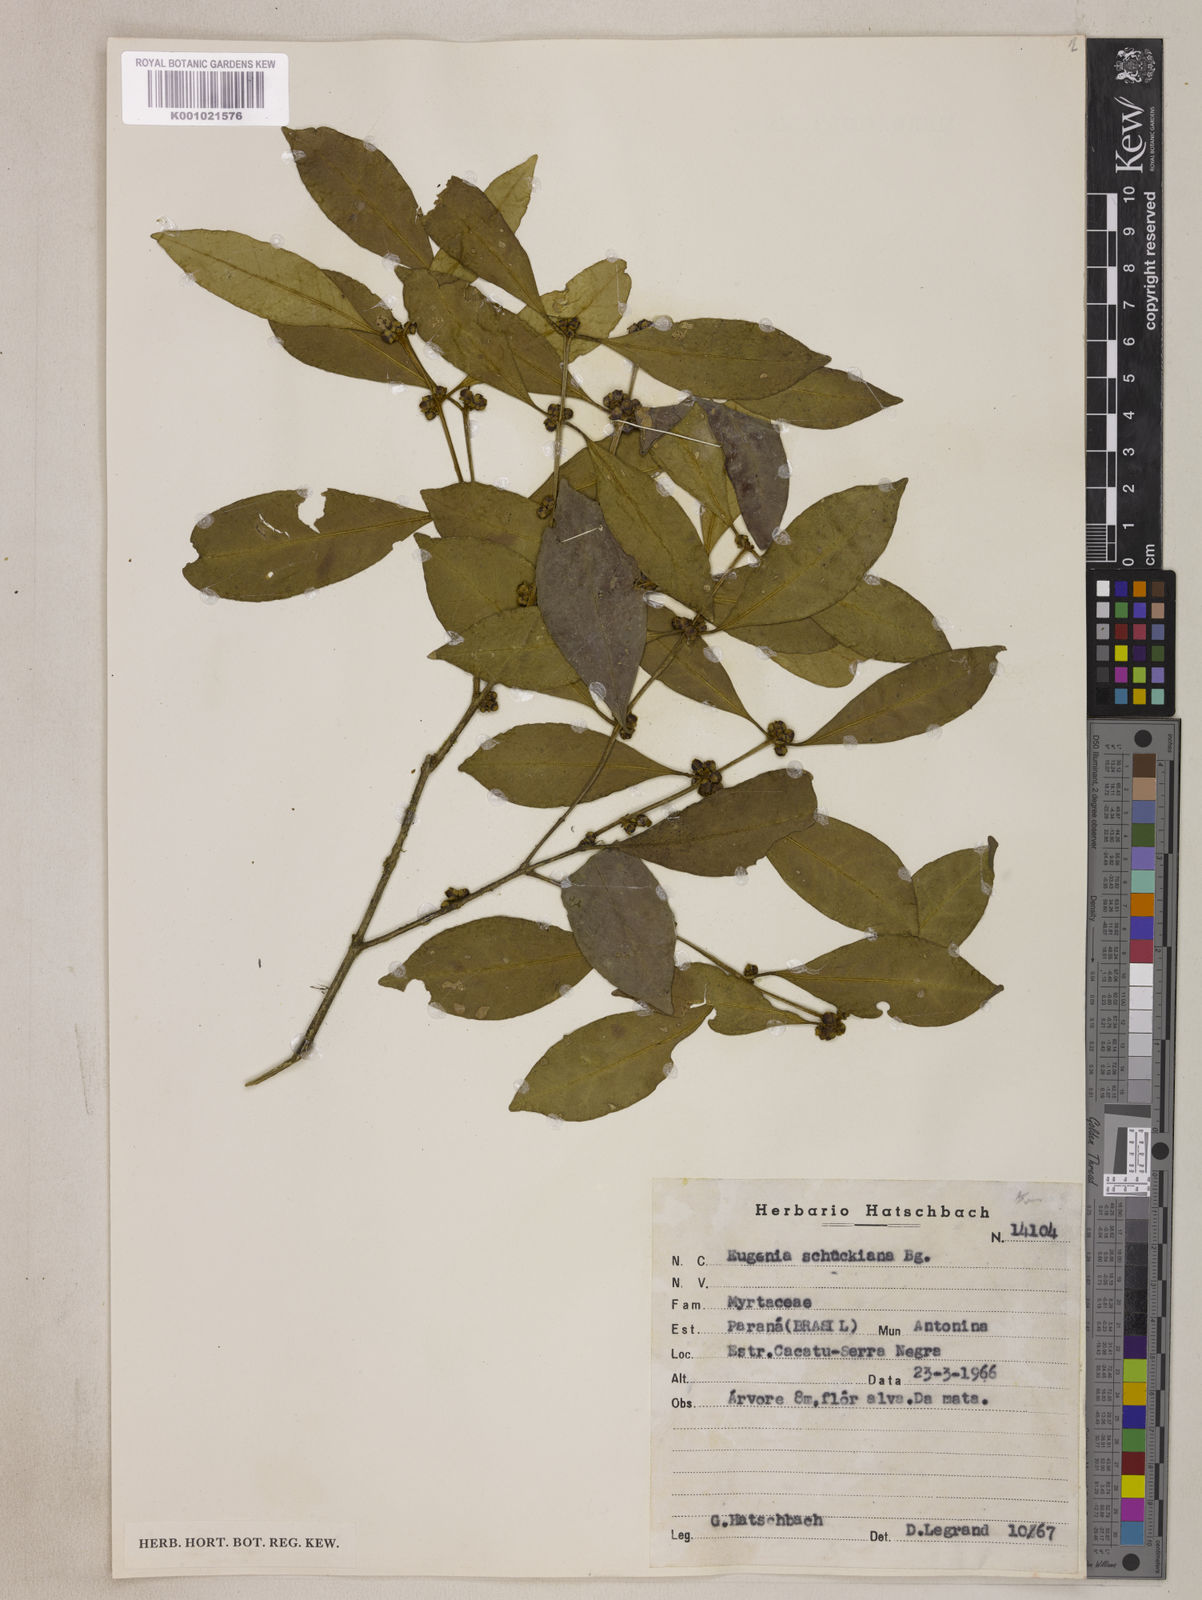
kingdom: Plantae
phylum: Tracheophyta
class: Magnoliopsida
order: Myrtales
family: Myrtaceae
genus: Eugenia
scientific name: Eugenia verticillata
